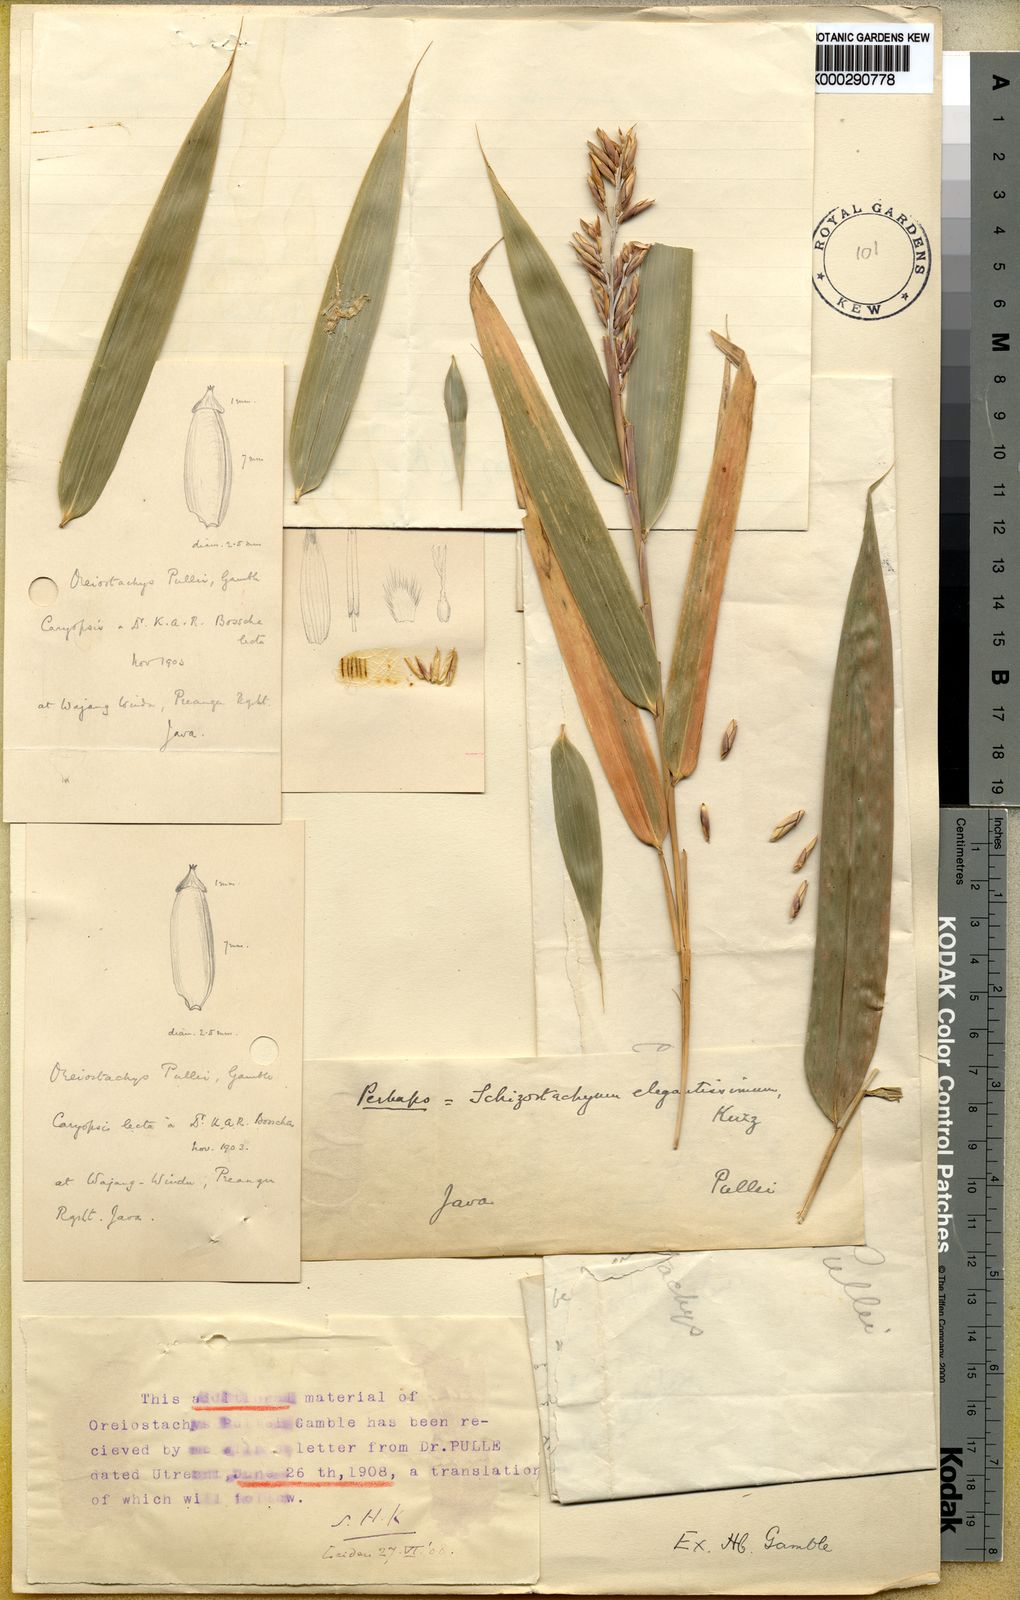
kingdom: Plantae
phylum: Tracheophyta
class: Liliopsida
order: Poales
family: Poaceae
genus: Chloothamnus
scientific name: Chloothamnus elegantissimus
